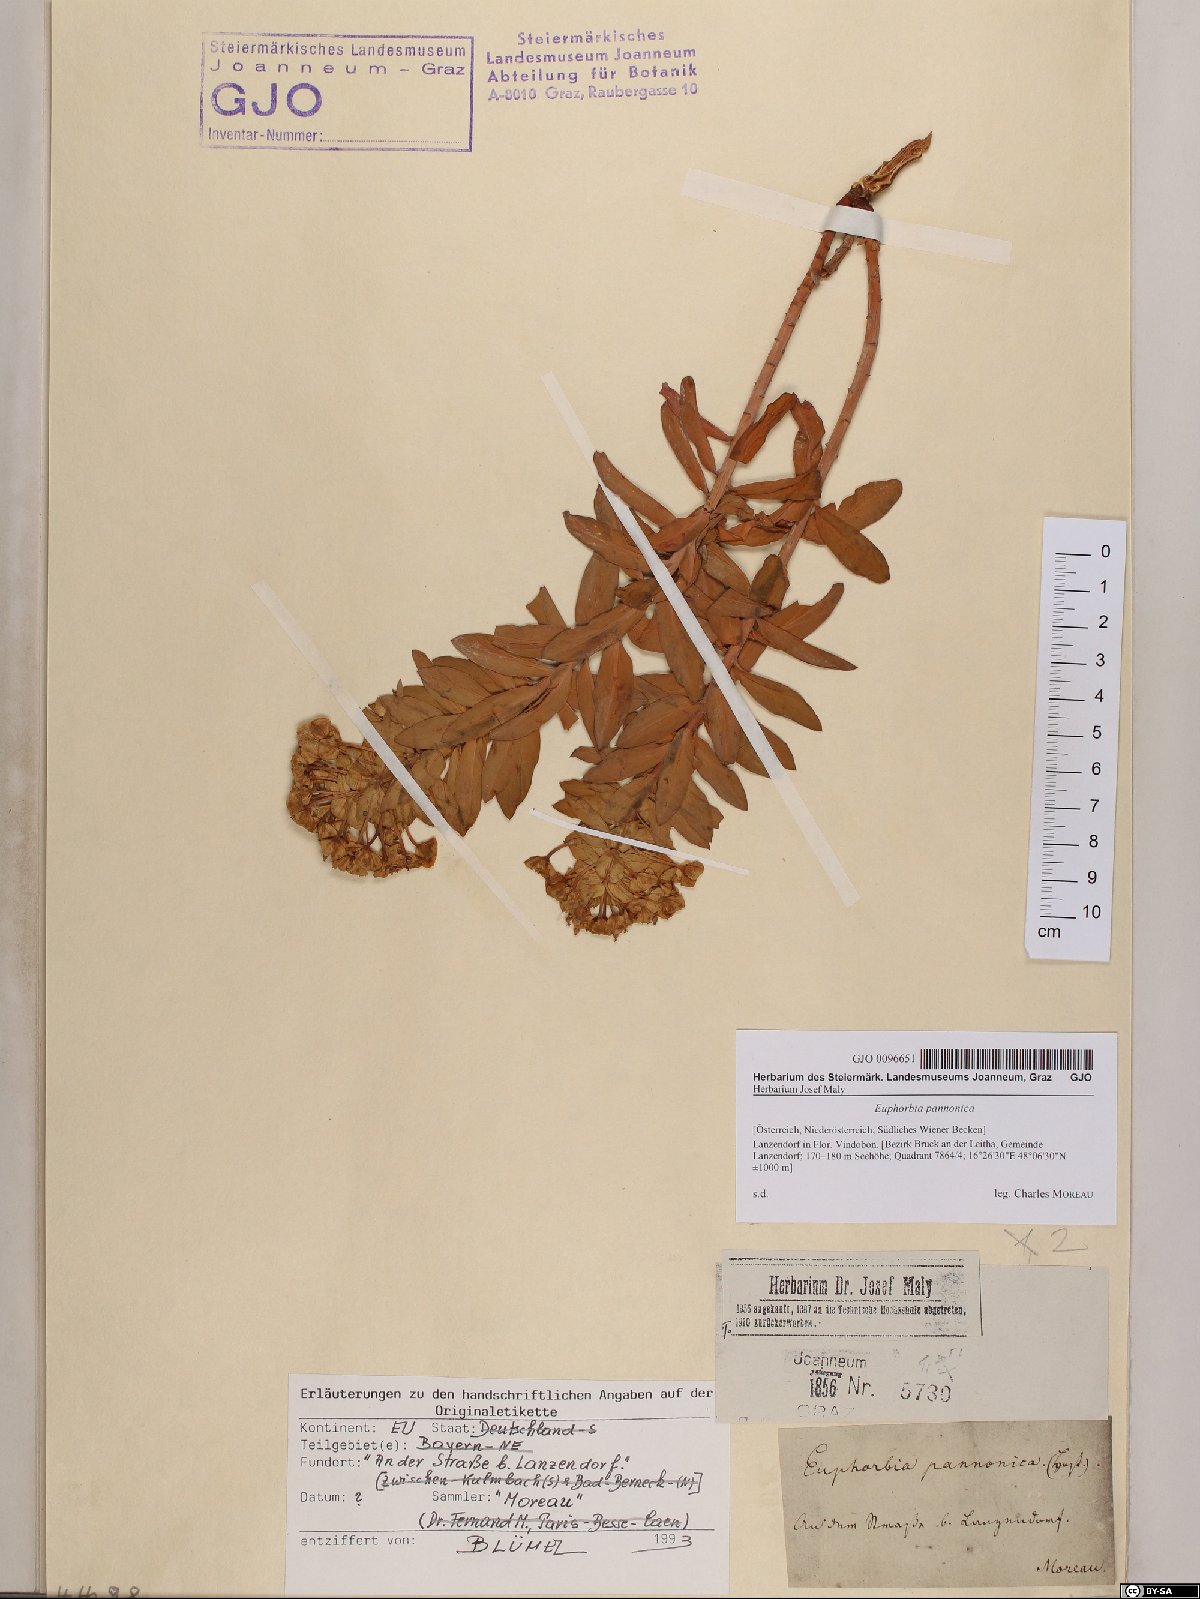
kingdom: Plantae
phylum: Tracheophyta
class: Magnoliopsida
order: Malpighiales
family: Euphorbiaceae
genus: Euphorbia
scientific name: Euphorbia pannonica
